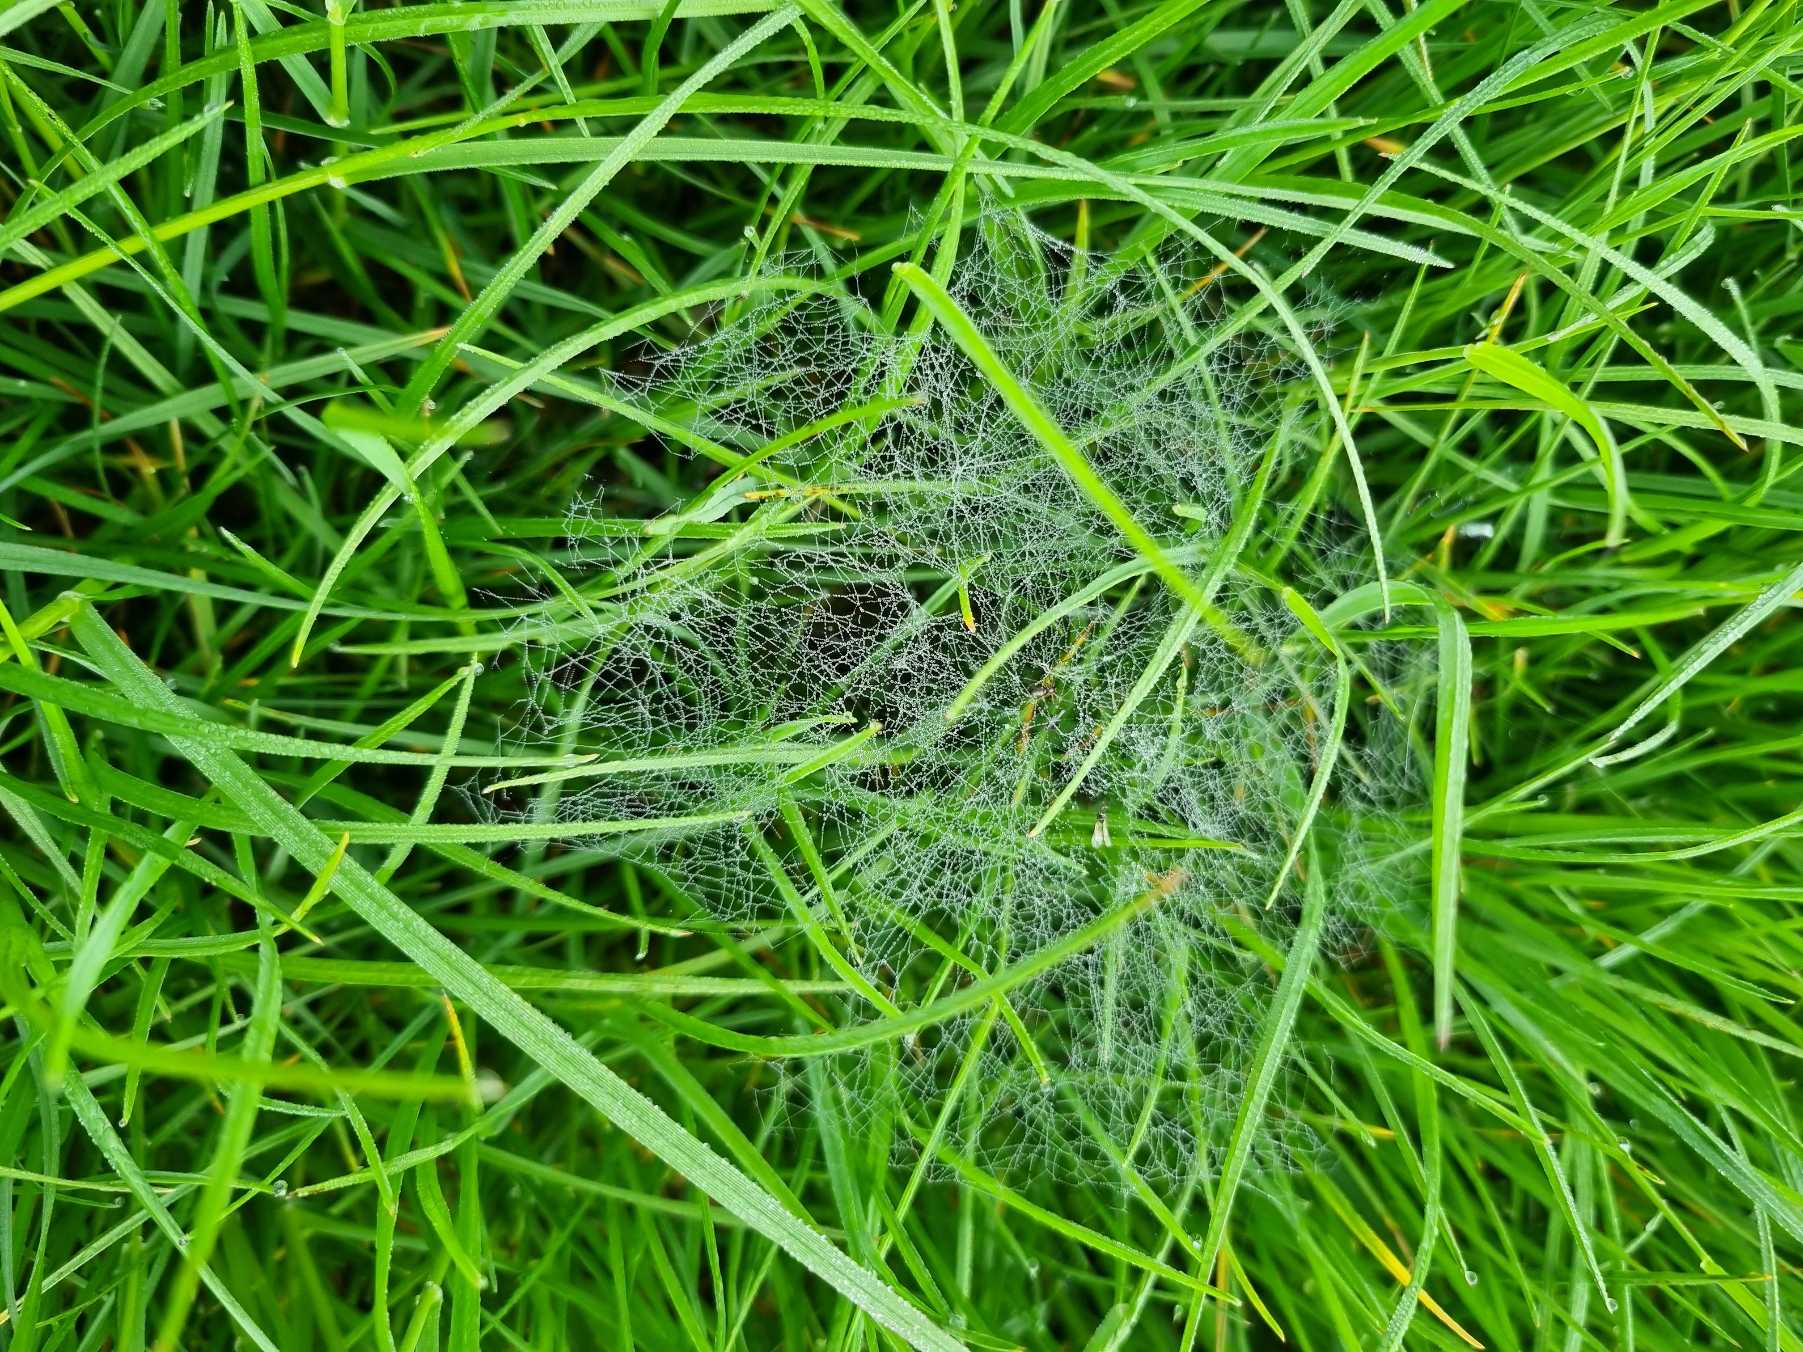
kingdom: Animalia
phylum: Arthropoda
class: Arachnida
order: Araneae
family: Linyphiidae
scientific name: Linyphiidae
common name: Tæppespindere
